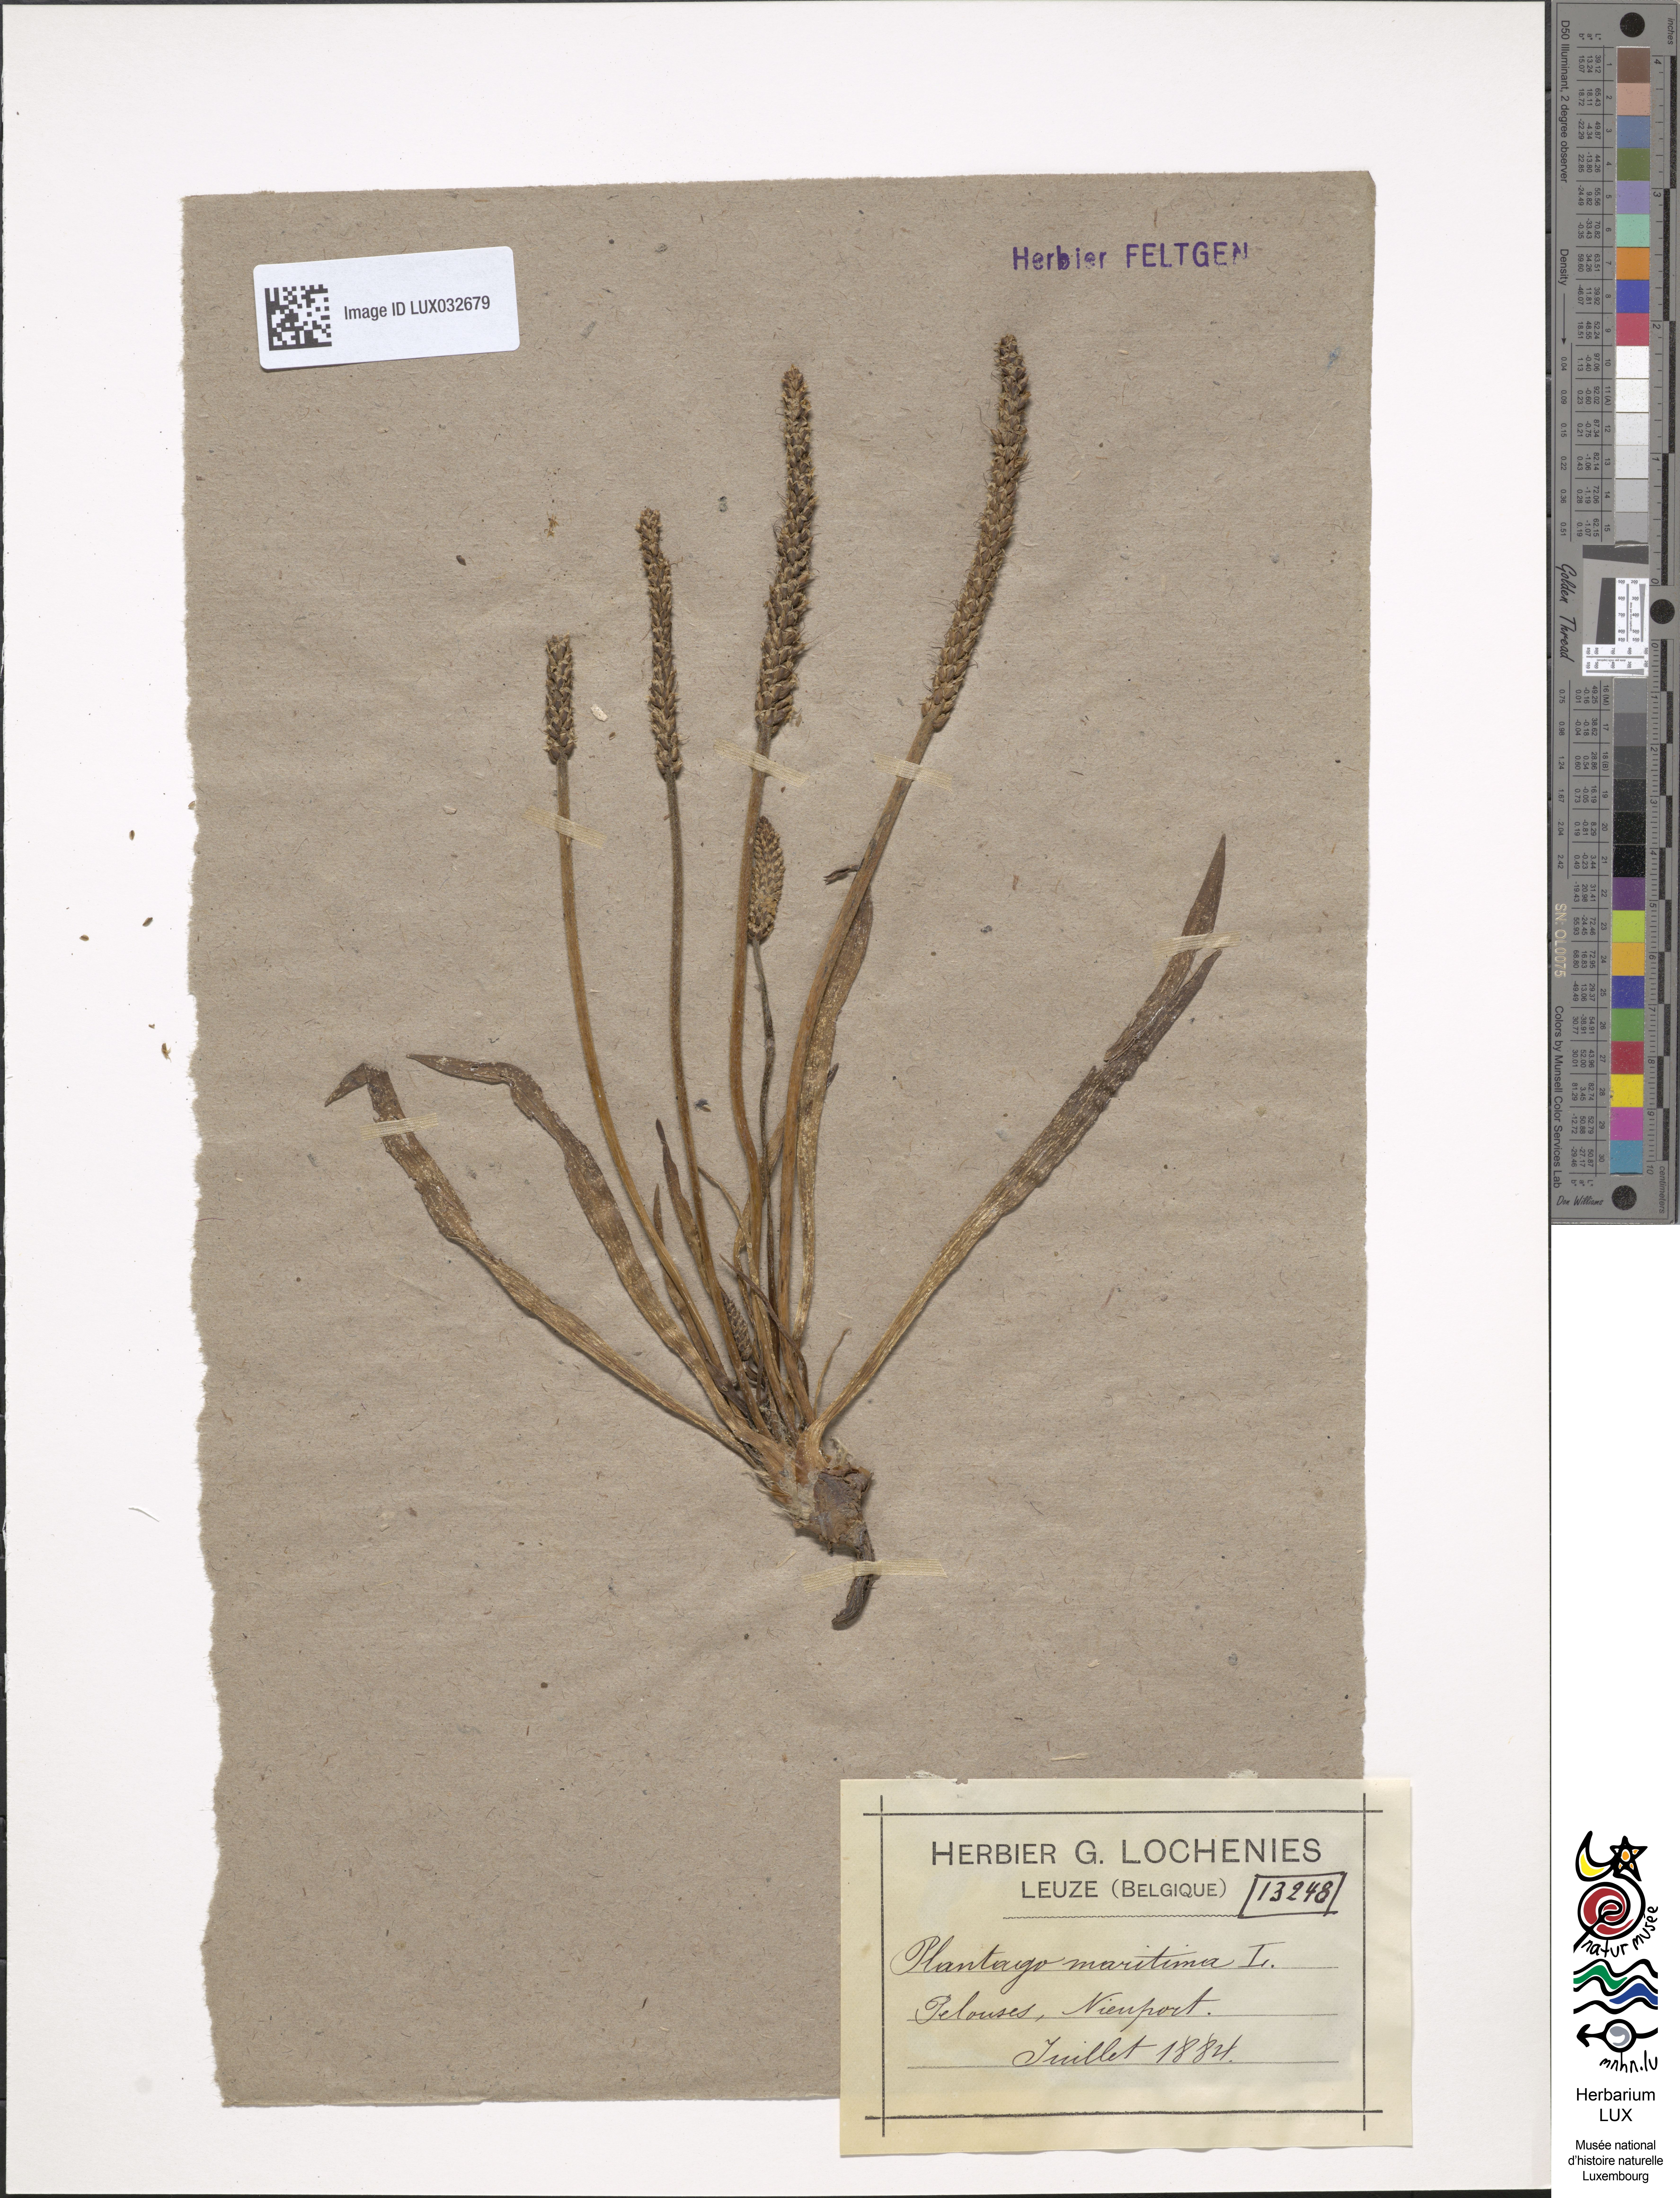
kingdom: Plantae
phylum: Tracheophyta
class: Magnoliopsida
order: Lamiales
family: Plantaginaceae
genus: Plantago
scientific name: Plantago maritima
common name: Sea plantain
